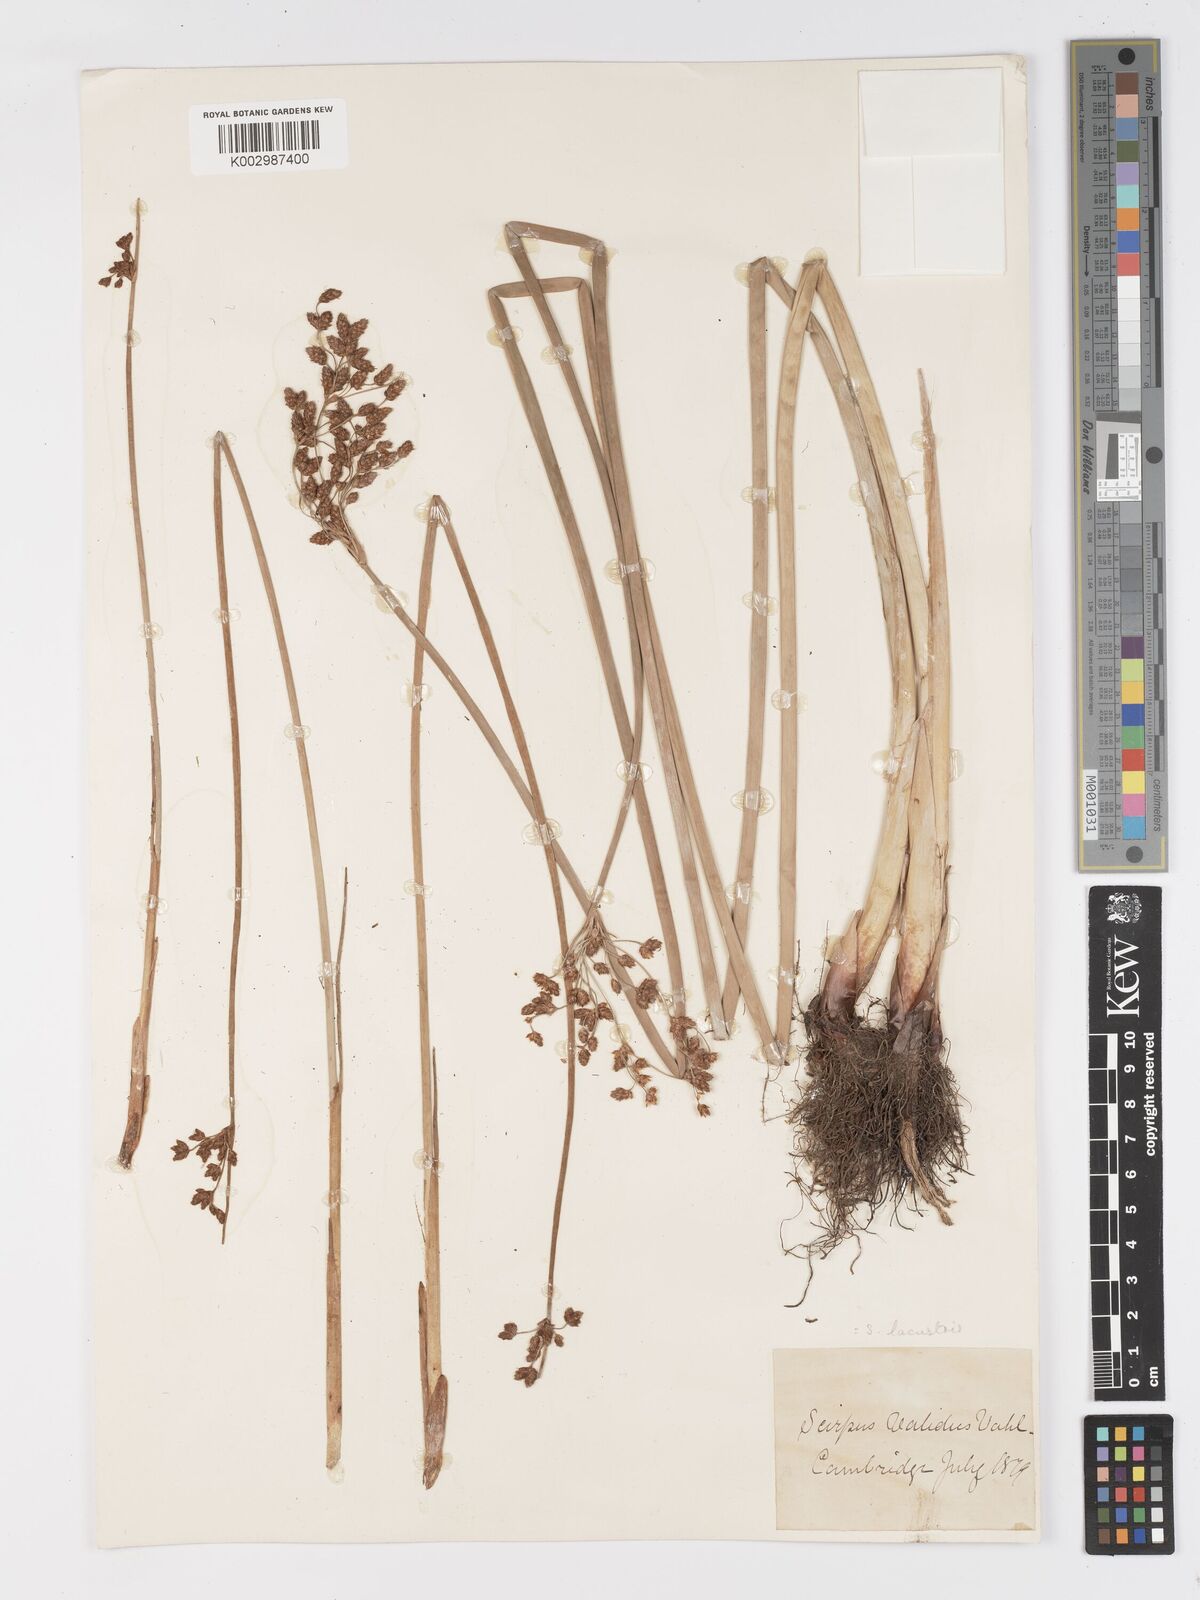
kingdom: Plantae
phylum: Tracheophyta
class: Liliopsida
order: Poales
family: Cyperaceae
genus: Schoenoplectus
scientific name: Schoenoplectus lacustris
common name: Common club-rush
